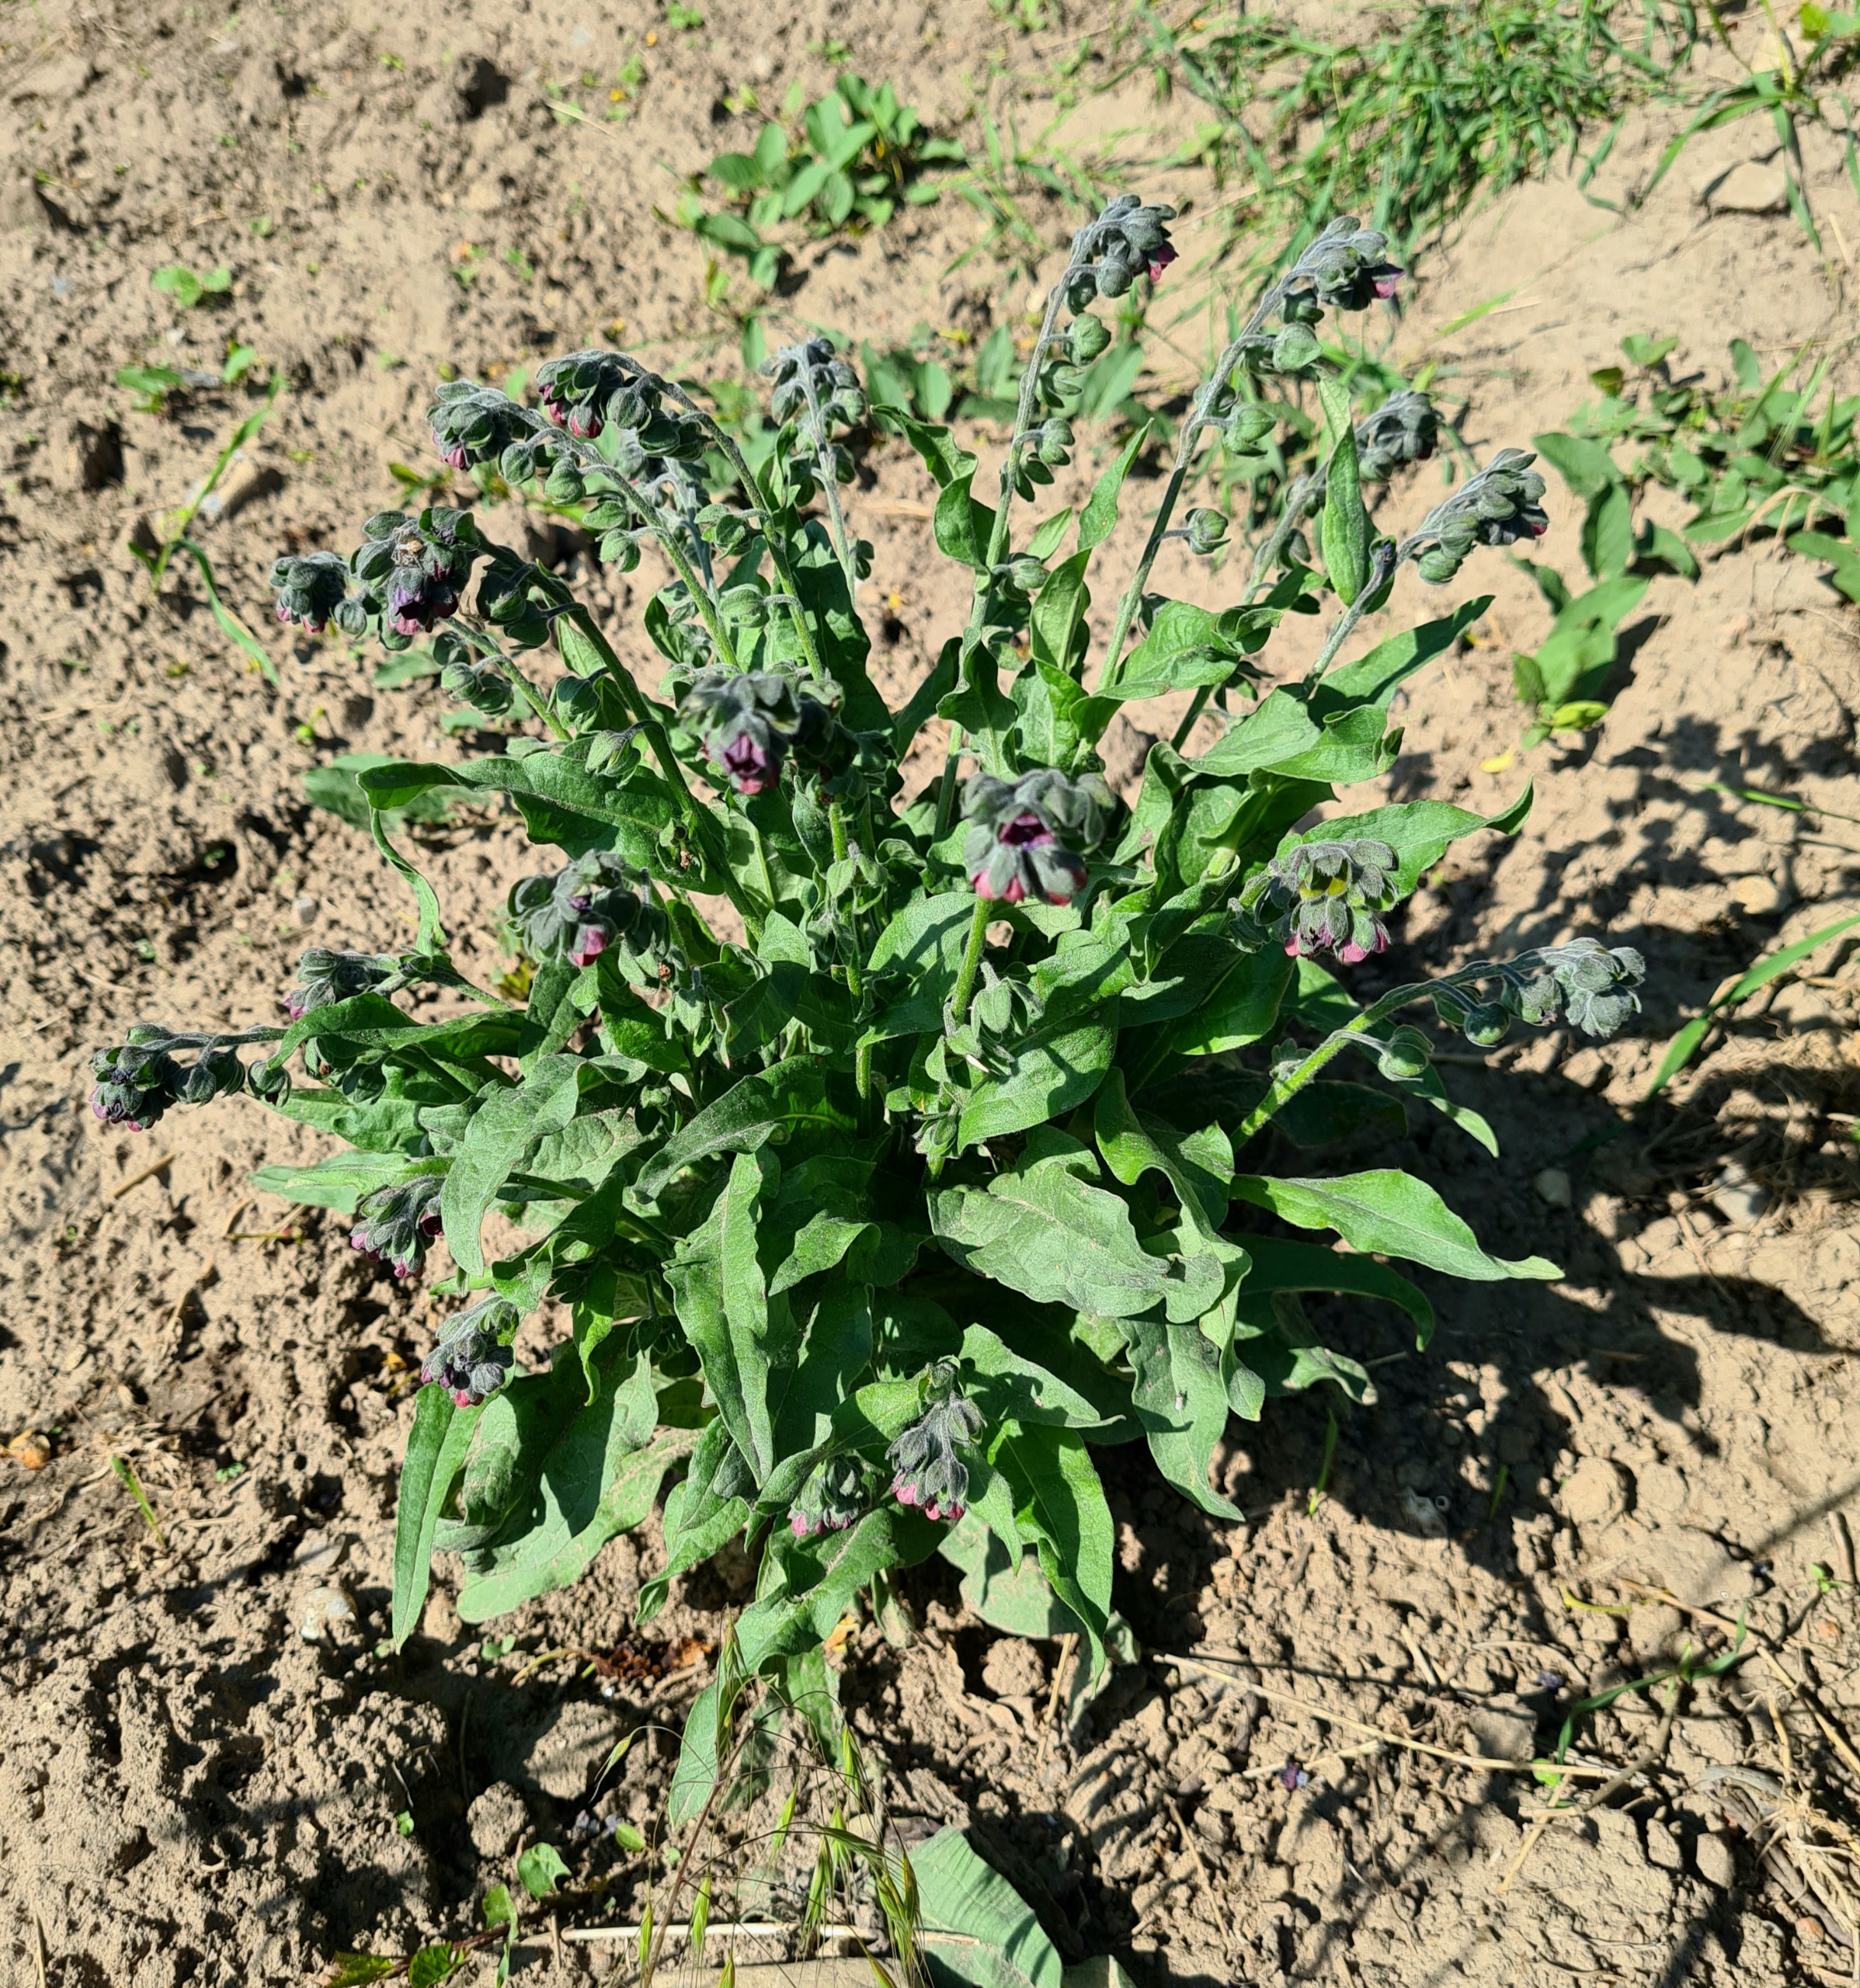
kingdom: Plantae
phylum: Tracheophyta
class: Magnoliopsida
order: Boraginales
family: Boraginaceae
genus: Cynoglossum
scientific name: Cynoglossum officinale
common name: Hundetunge
